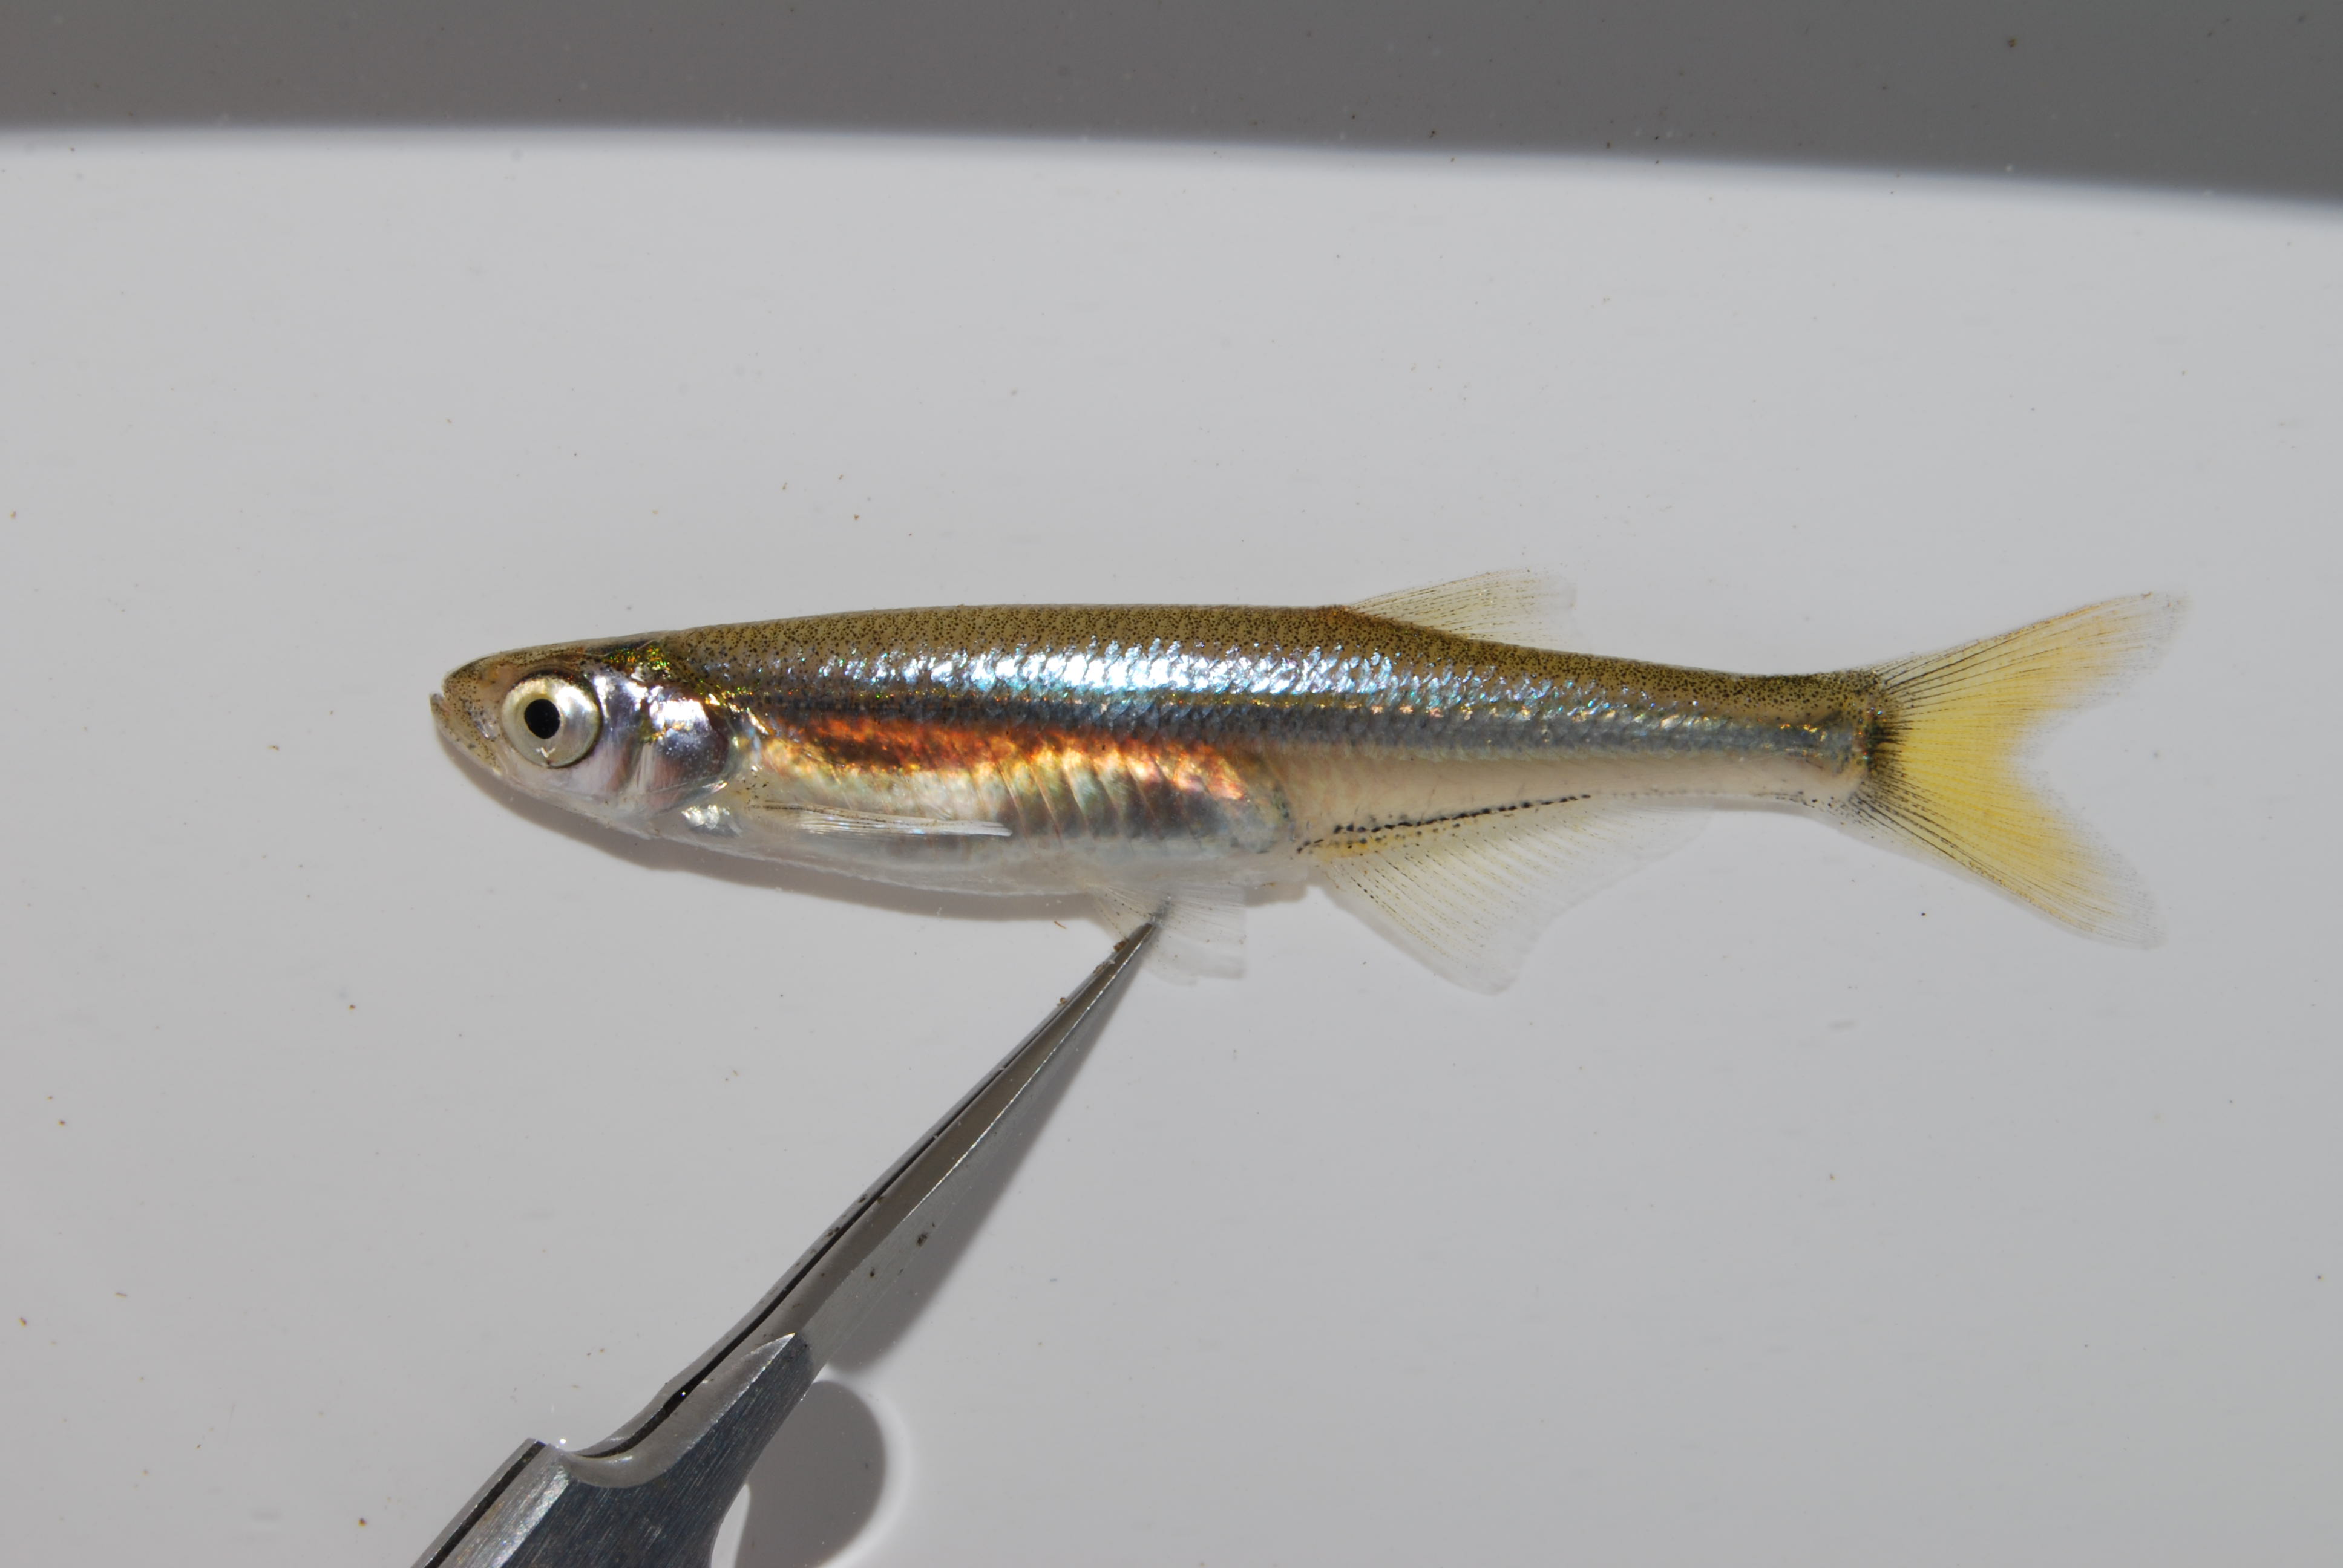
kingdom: Animalia
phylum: Chordata
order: Cypriniformes
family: Cyprinidae
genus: Engraulicypris
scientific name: Engraulicypris brevianalis
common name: River sardine
